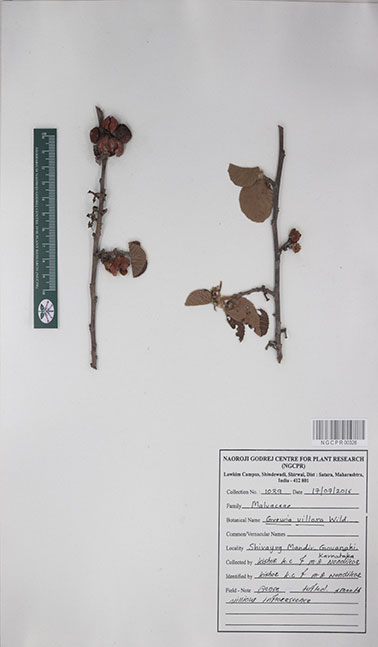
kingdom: Plantae
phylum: Tracheophyta
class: Magnoliopsida
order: Malvales
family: Malvaceae
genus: Grewia
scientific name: Grewia villosa
